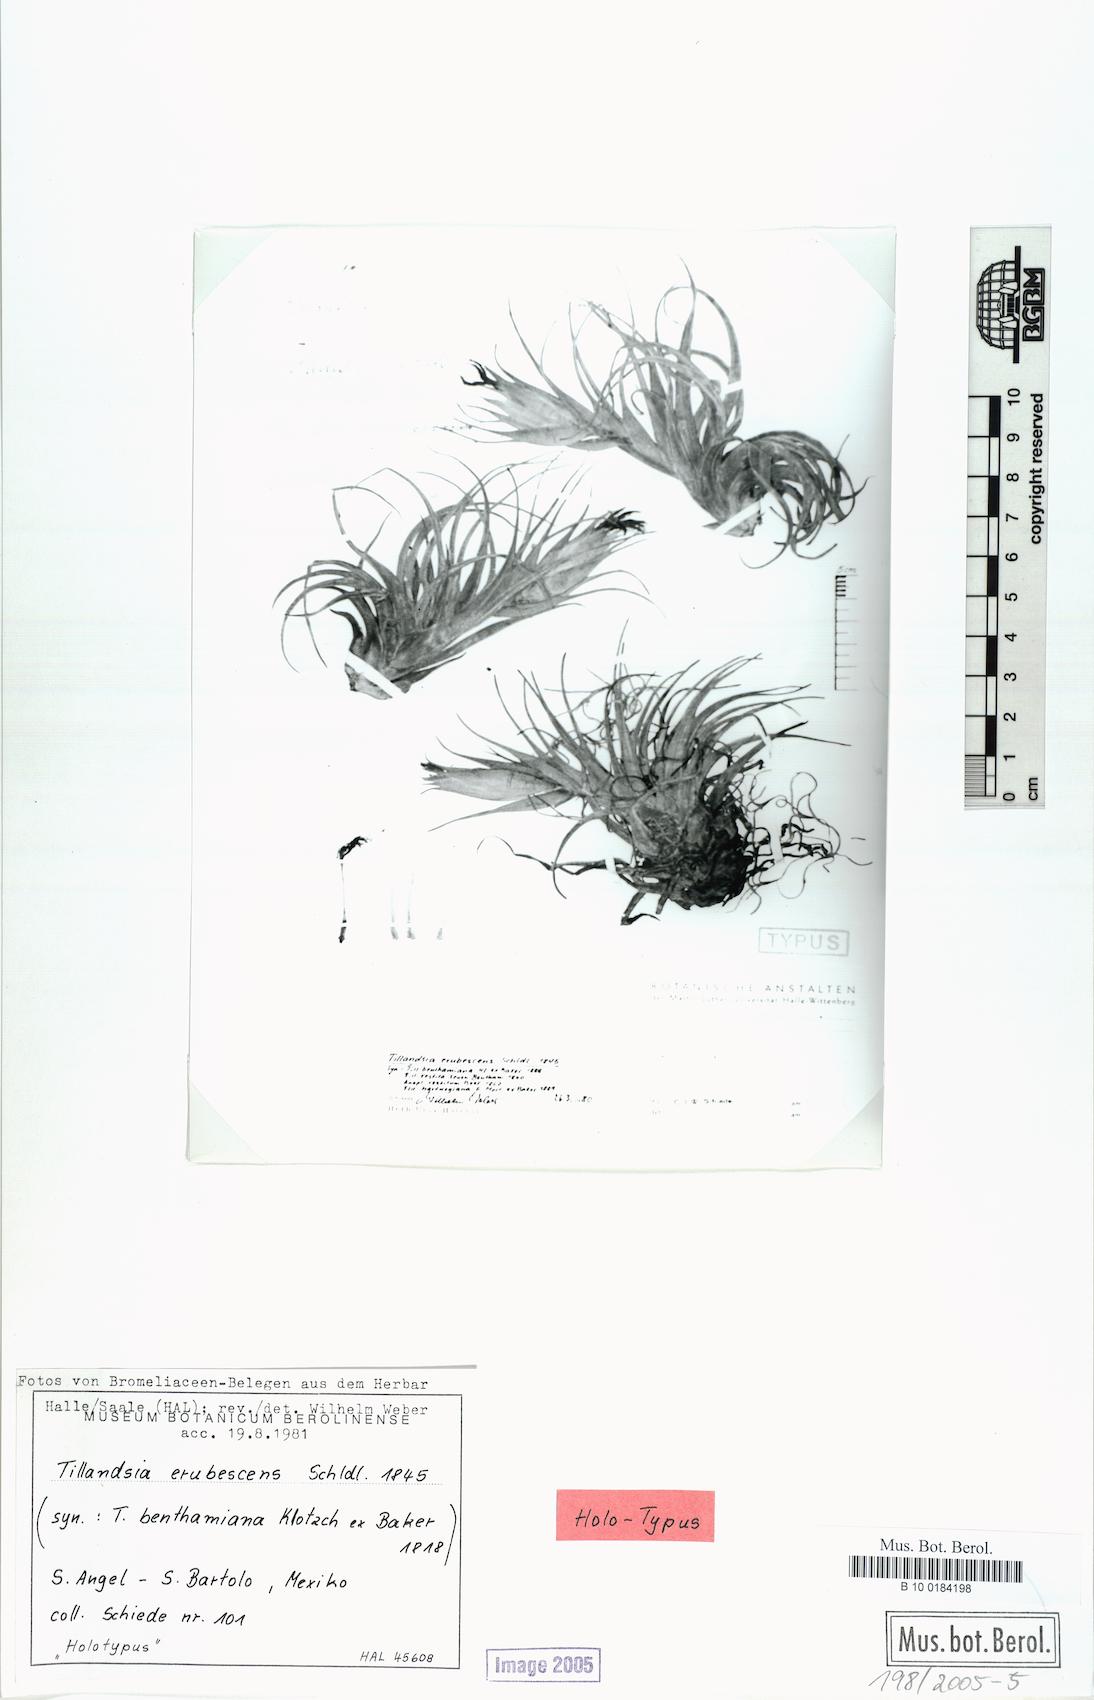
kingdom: Plantae
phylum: Tracheophyta
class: Liliopsida
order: Poales
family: Bromeliaceae
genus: Tillandsia
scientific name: Tillandsia erubescens
